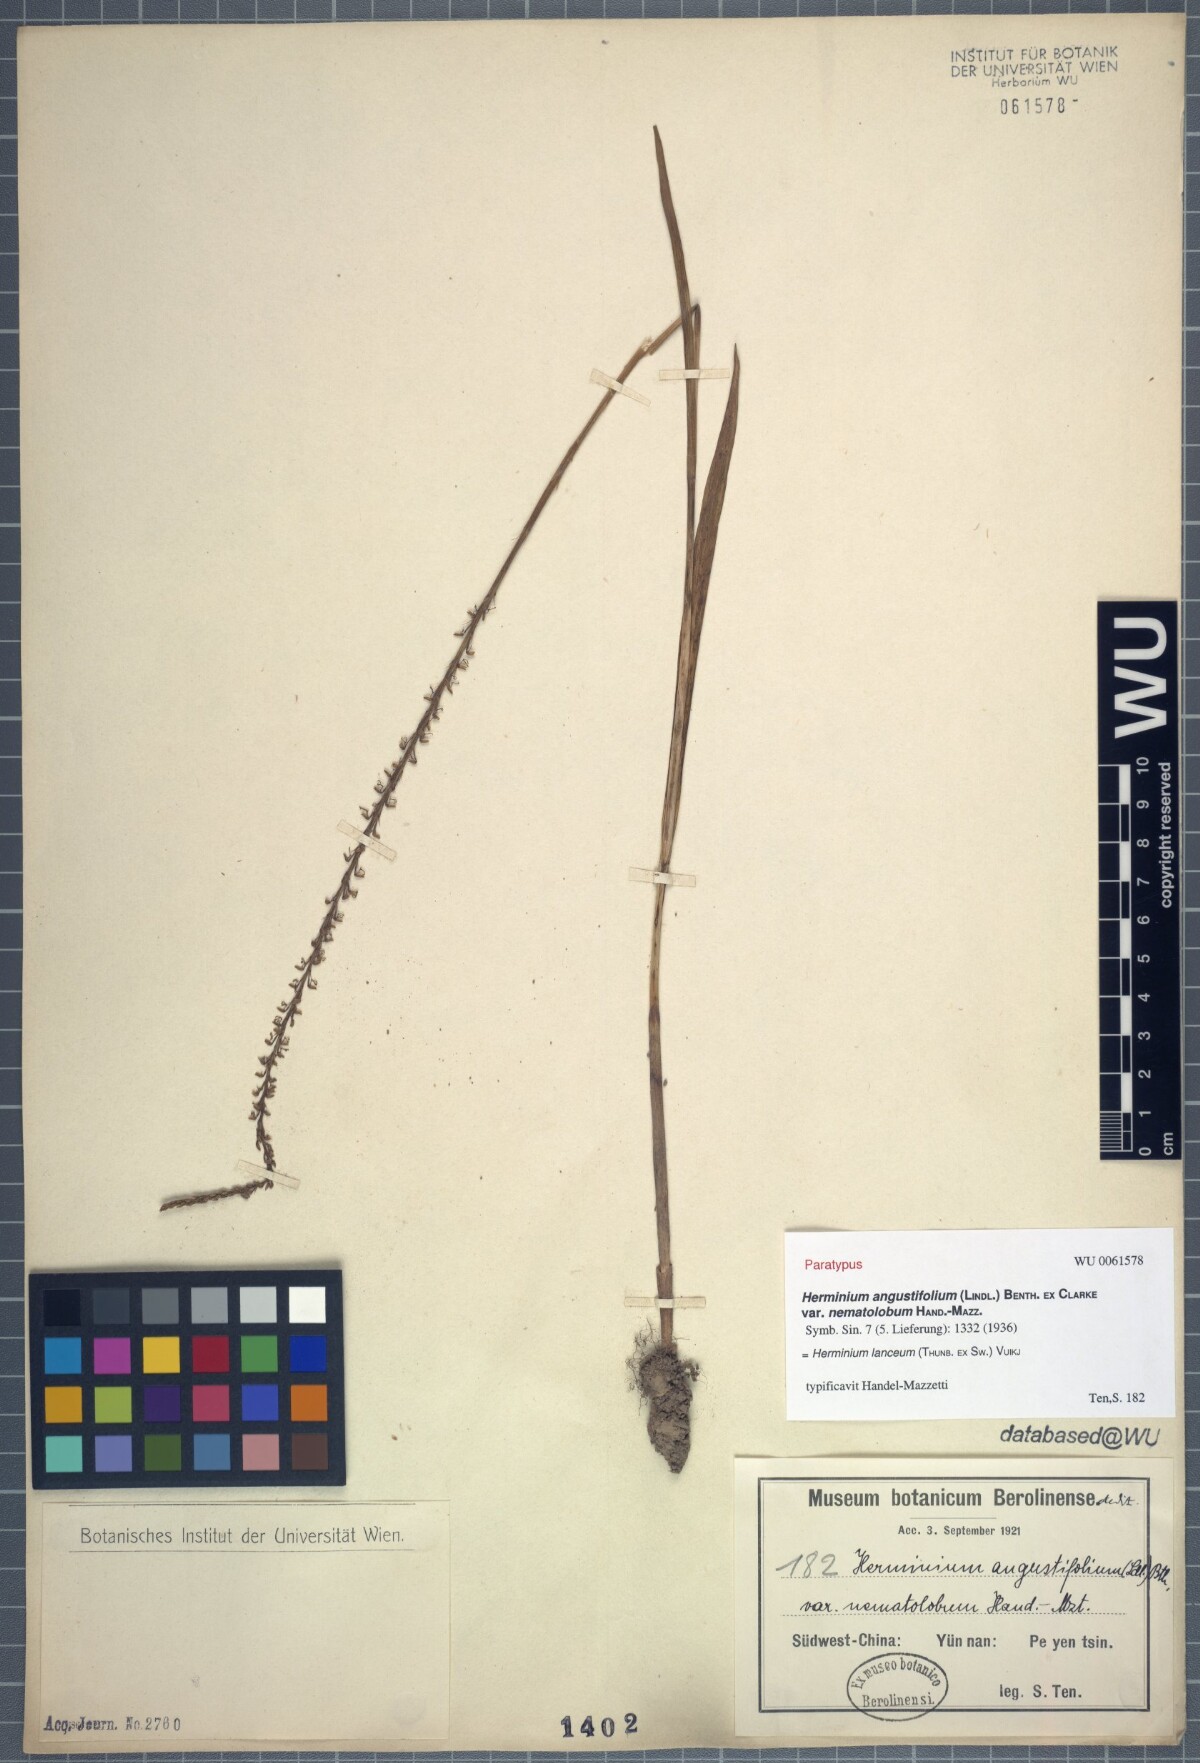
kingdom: Plantae
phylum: Tracheophyta
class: Liliopsida
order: Asparagales
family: Orchidaceae
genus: Herminium
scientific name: Herminium lanceum
